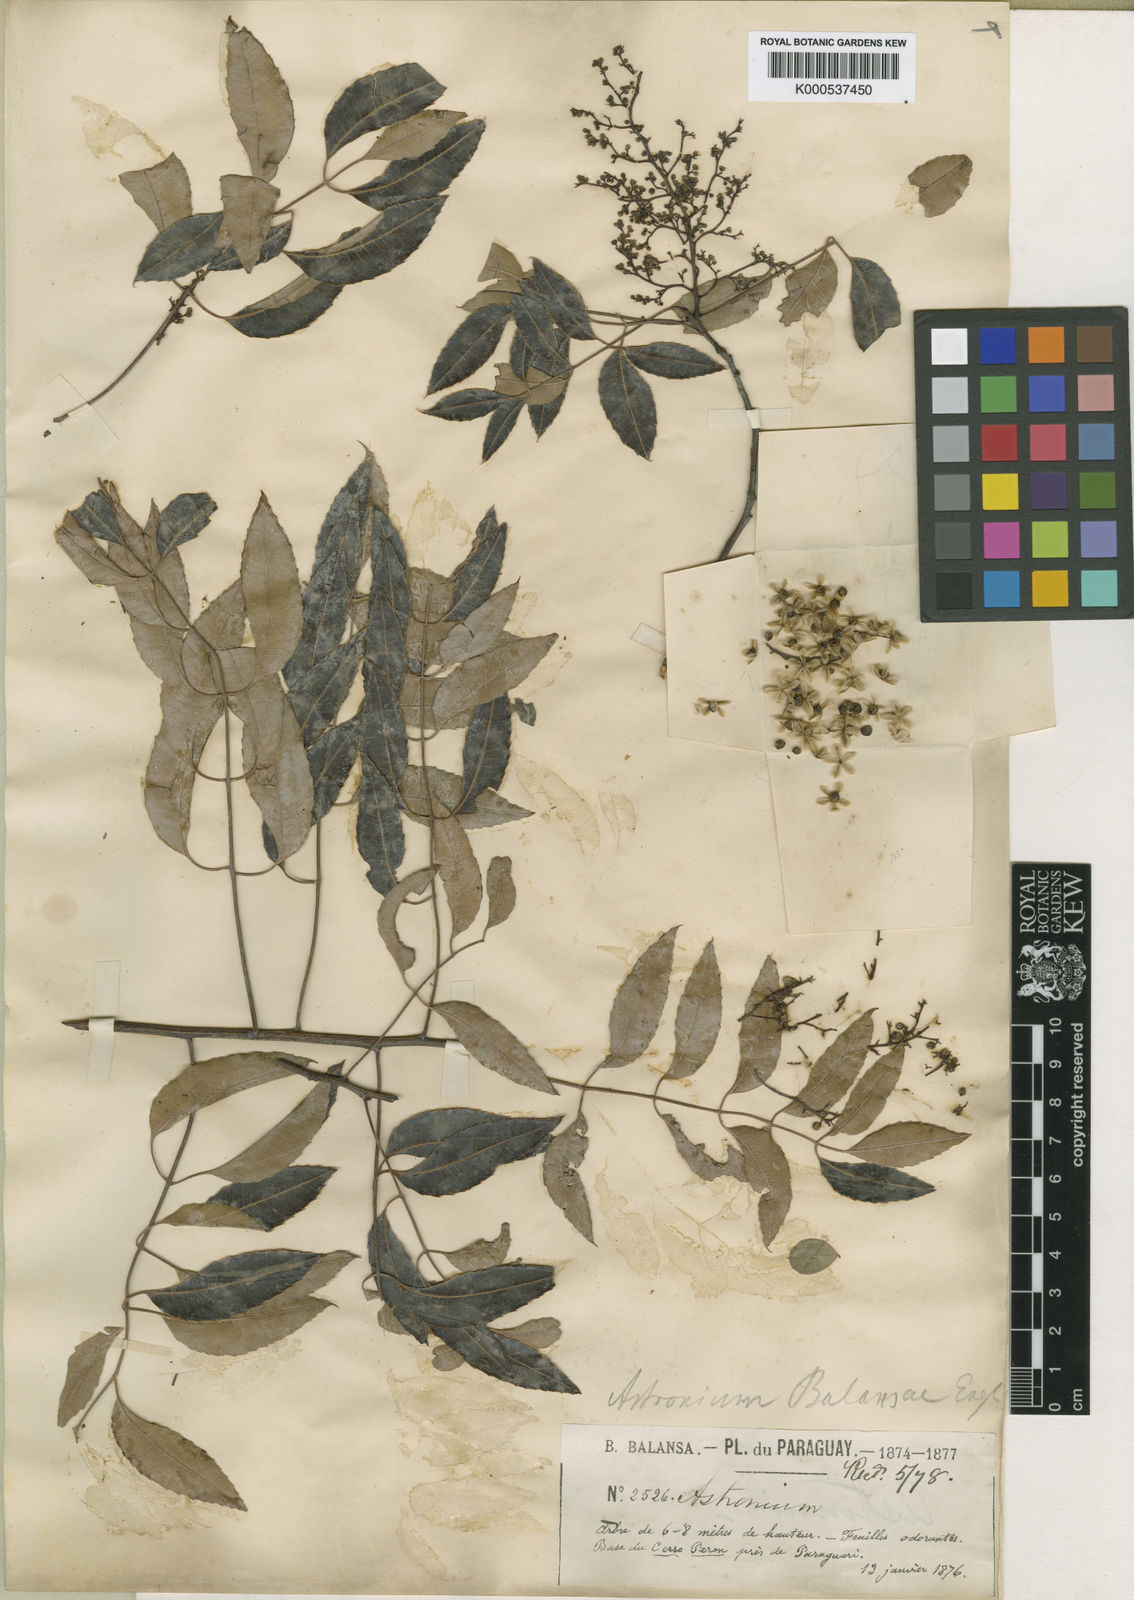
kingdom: Plantae
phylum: Tracheophyta
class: Magnoliopsida
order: Sapindales
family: Anacardiaceae
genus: Myracrodruon
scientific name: Myracrodruon balansae
